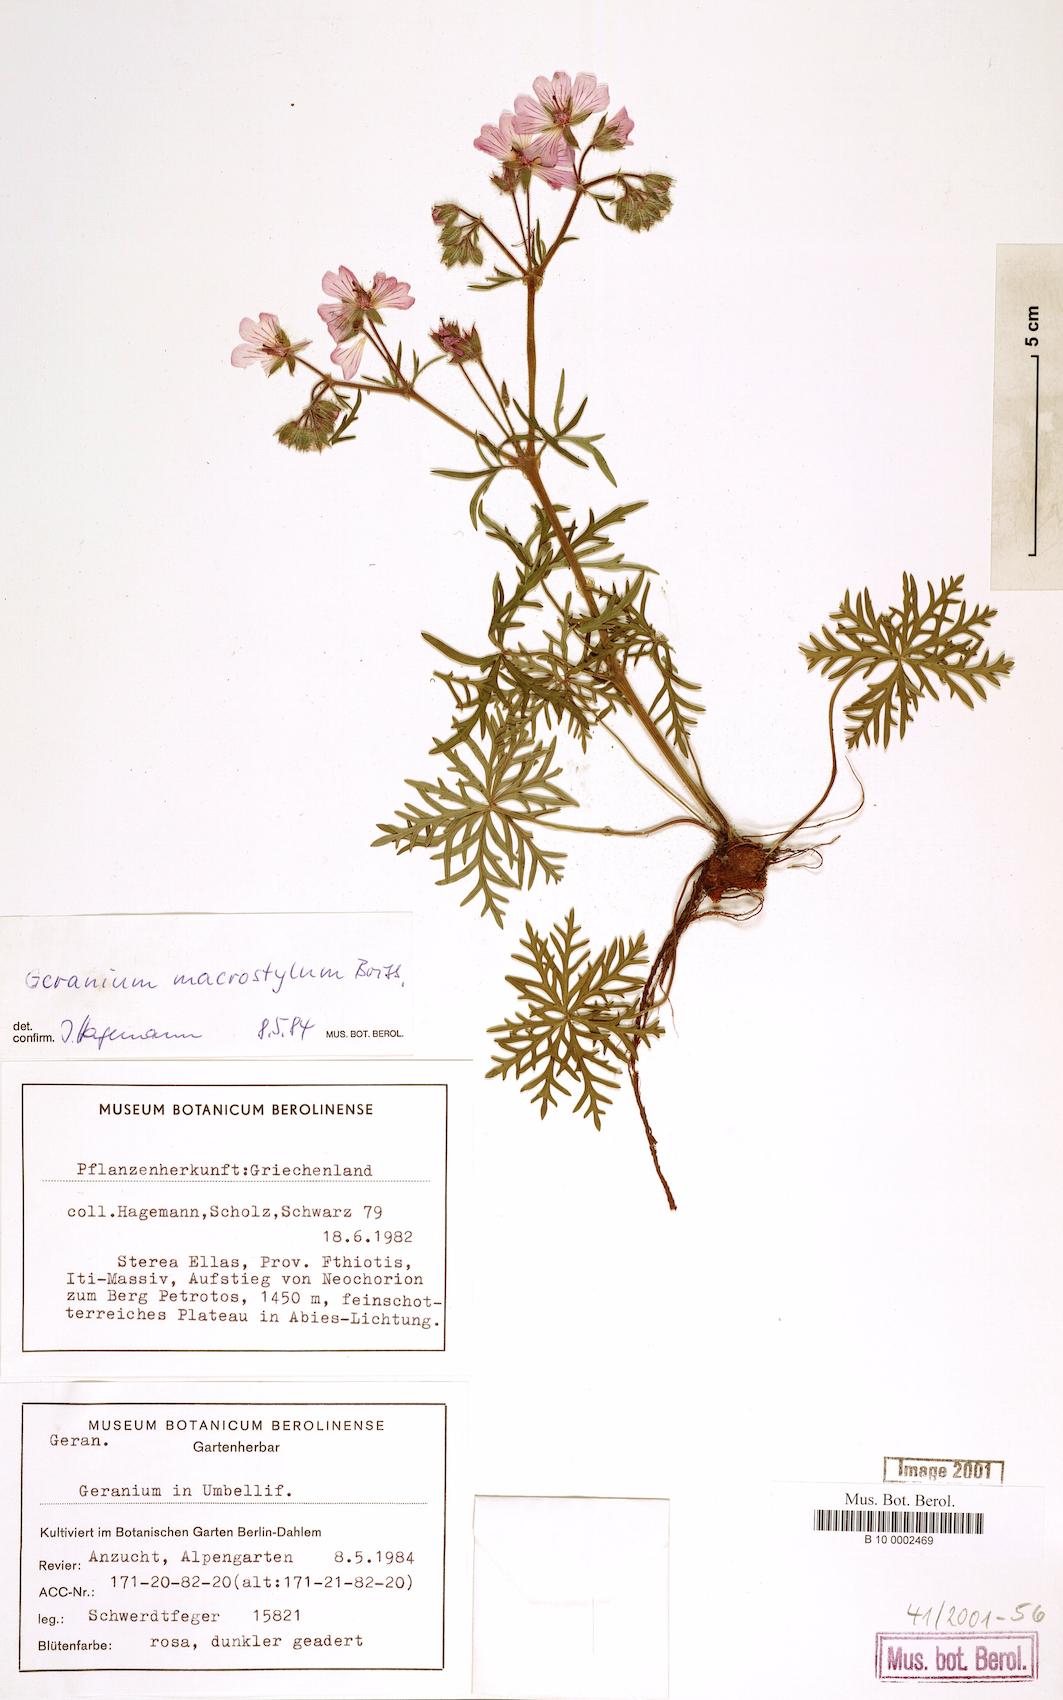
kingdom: Plantae
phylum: Tracheophyta
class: Magnoliopsida
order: Geraniales
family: Geraniaceae
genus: Geranium
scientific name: Geranium macrostylum
